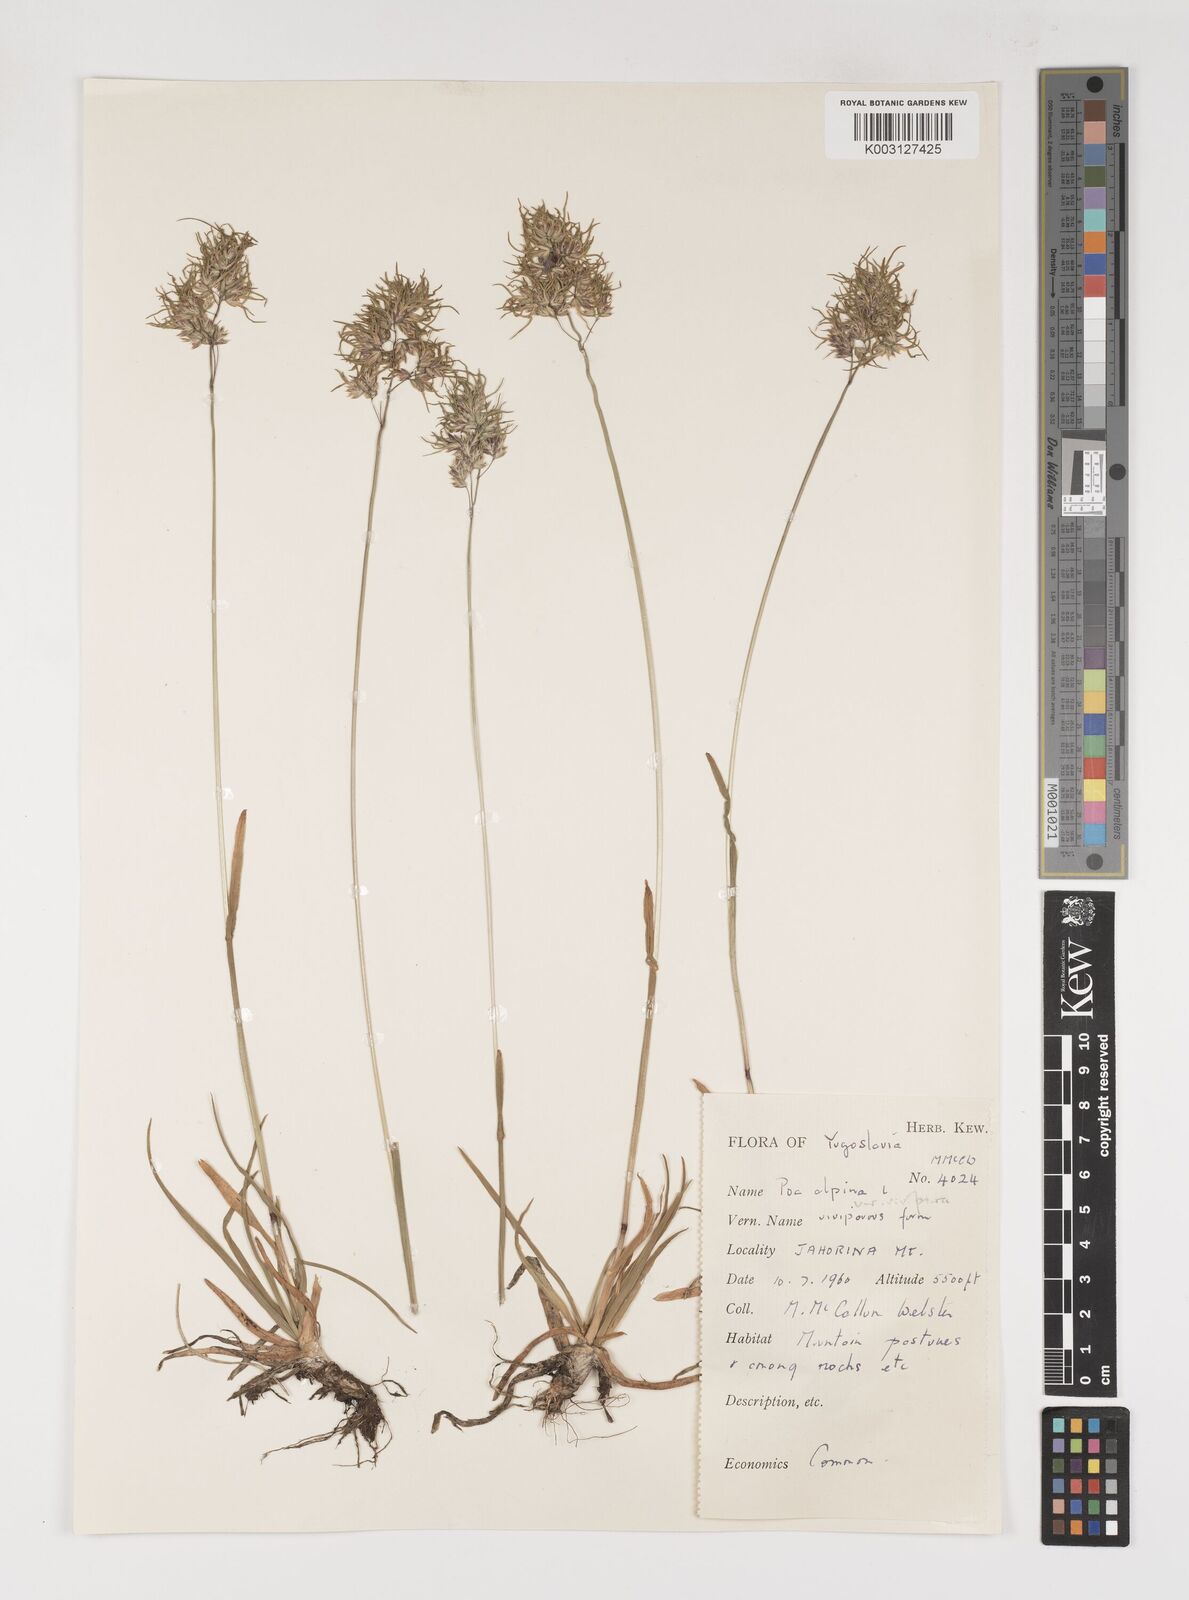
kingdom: Plantae
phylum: Tracheophyta
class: Liliopsida
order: Poales
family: Poaceae
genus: Poa
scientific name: Poa alpina
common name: Alpine bluegrass
